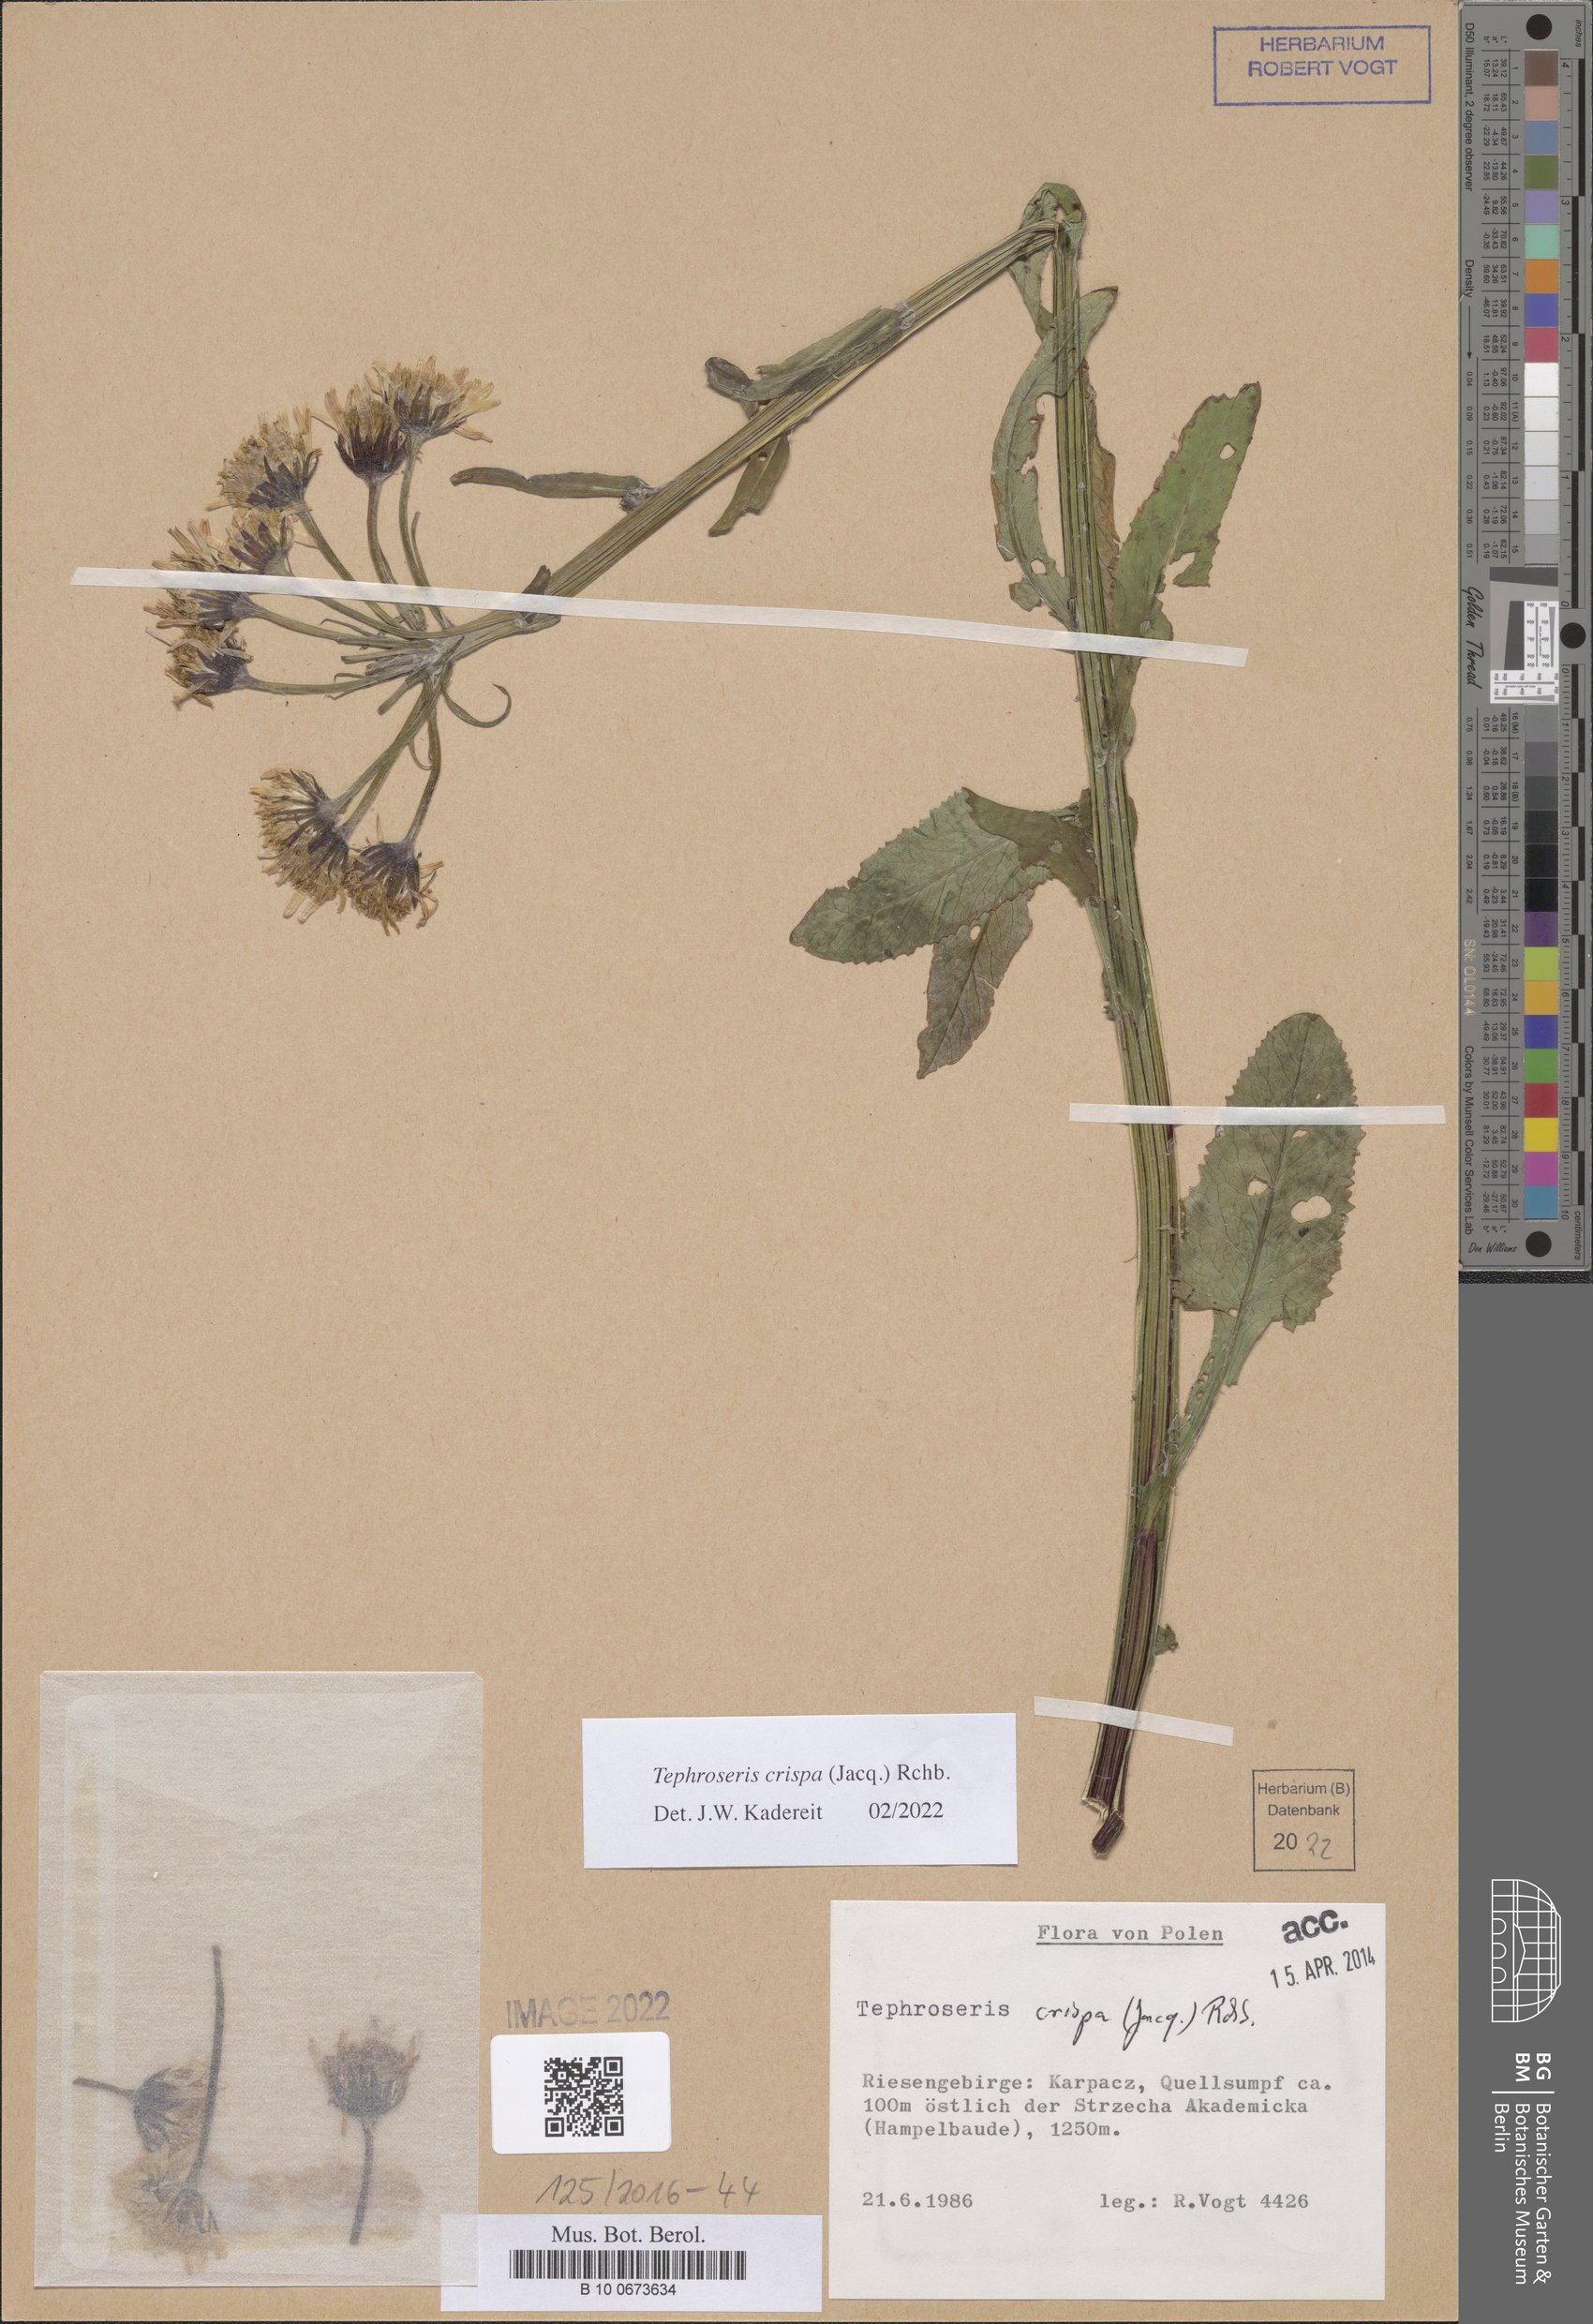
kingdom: Plantae
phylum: Tracheophyta
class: Magnoliopsida
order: Asterales
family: Asteraceae
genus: Tephroseris
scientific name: Tephroseris crispa
